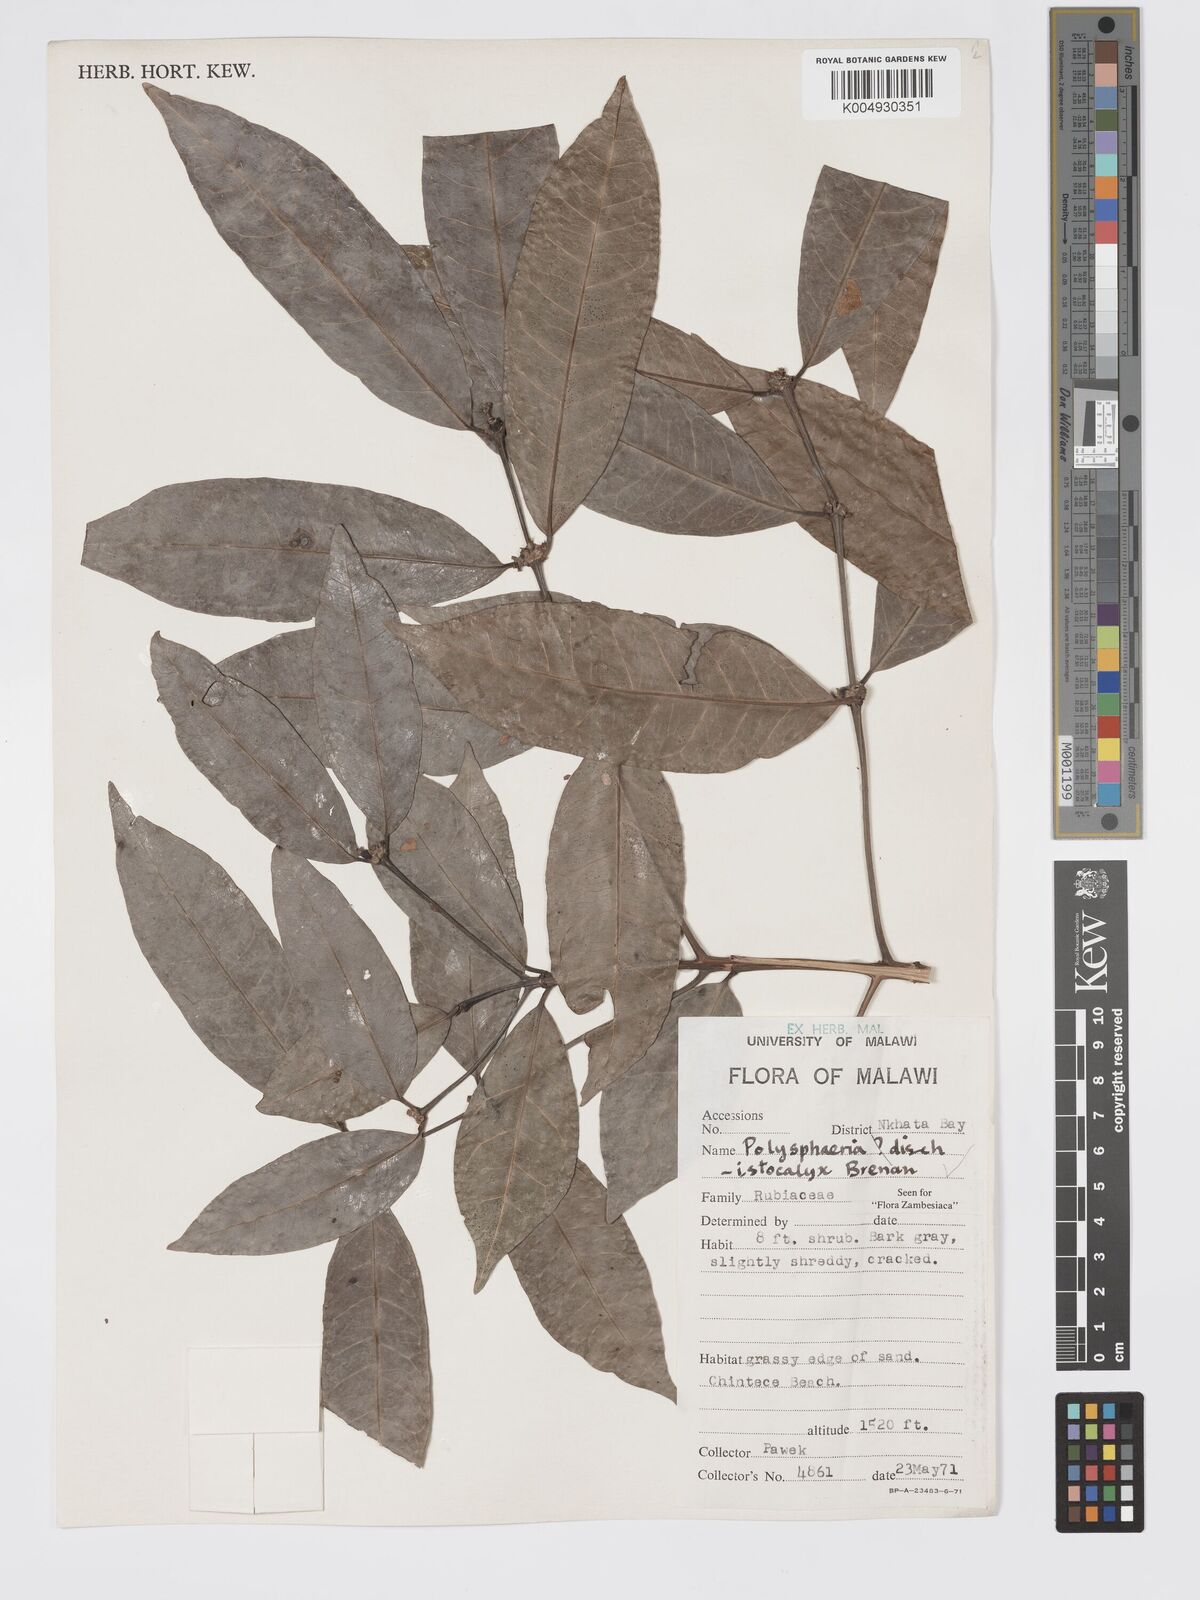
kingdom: Plantae
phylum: Tracheophyta
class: Magnoliopsida
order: Gentianales
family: Rubiaceae
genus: Polysphaeria
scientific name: Polysphaeria dischistocalyx
